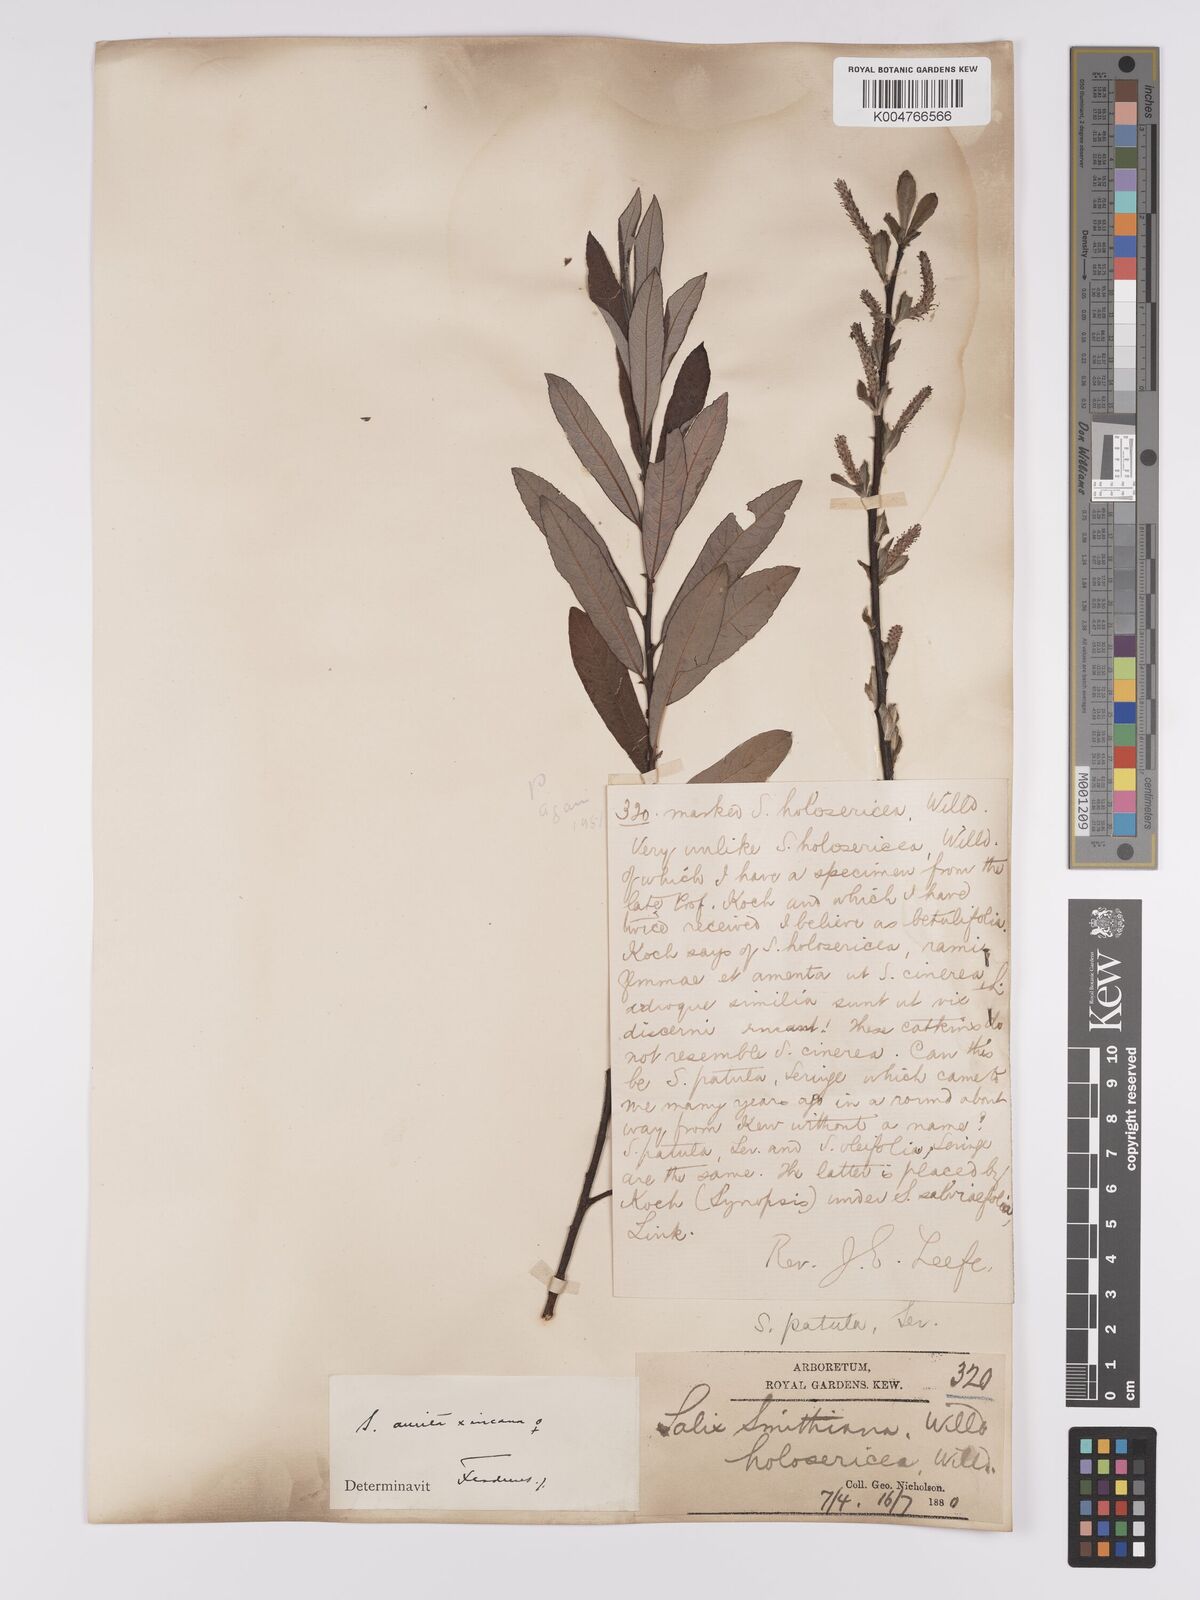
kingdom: Plantae
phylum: Tracheophyta
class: Magnoliopsida
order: Malpighiales
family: Salicaceae
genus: Salix
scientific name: Salix
